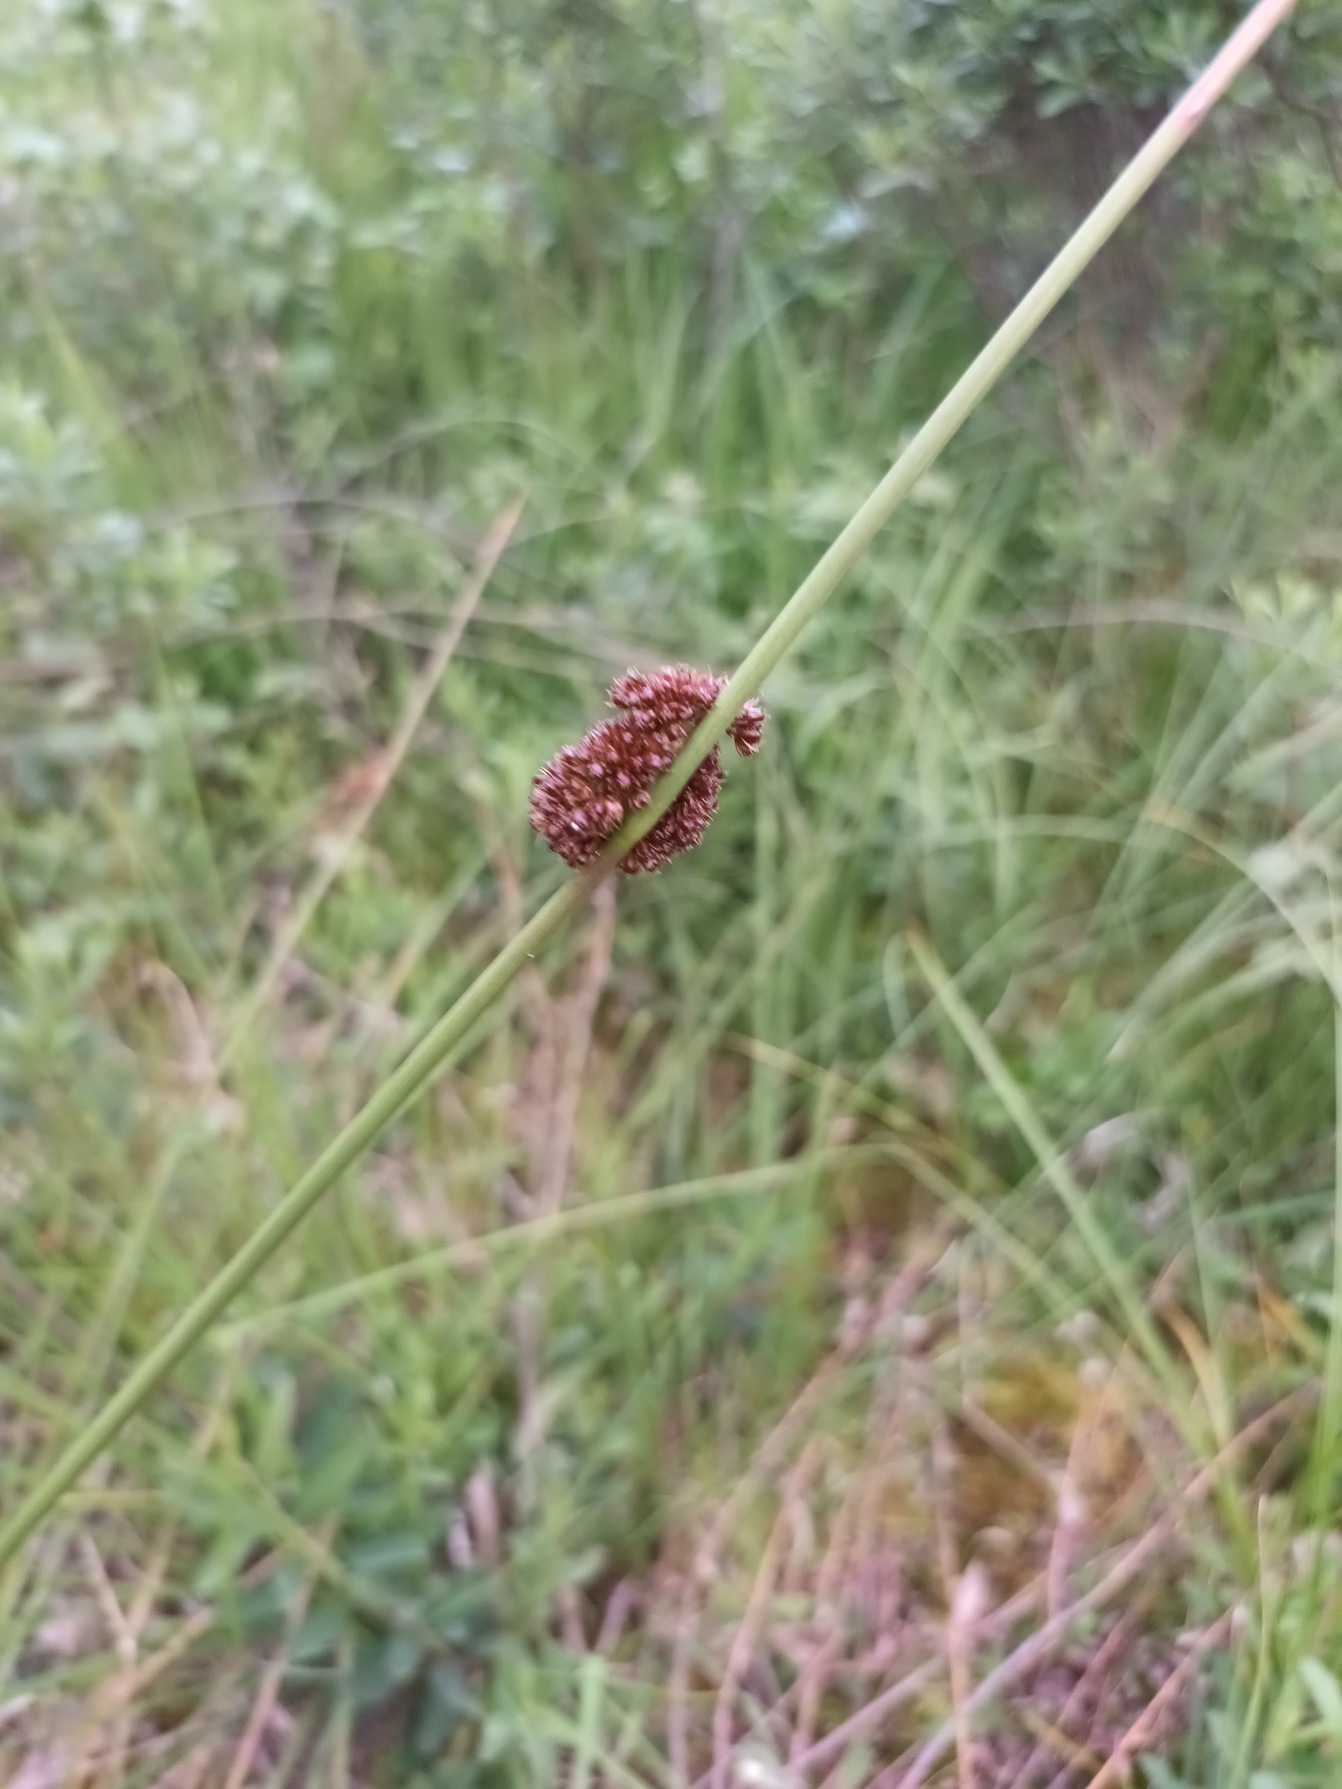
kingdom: Plantae
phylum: Tracheophyta
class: Liliopsida
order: Poales
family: Juncaceae
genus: Juncus
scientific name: Juncus conglomeratus
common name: Knop-siv
